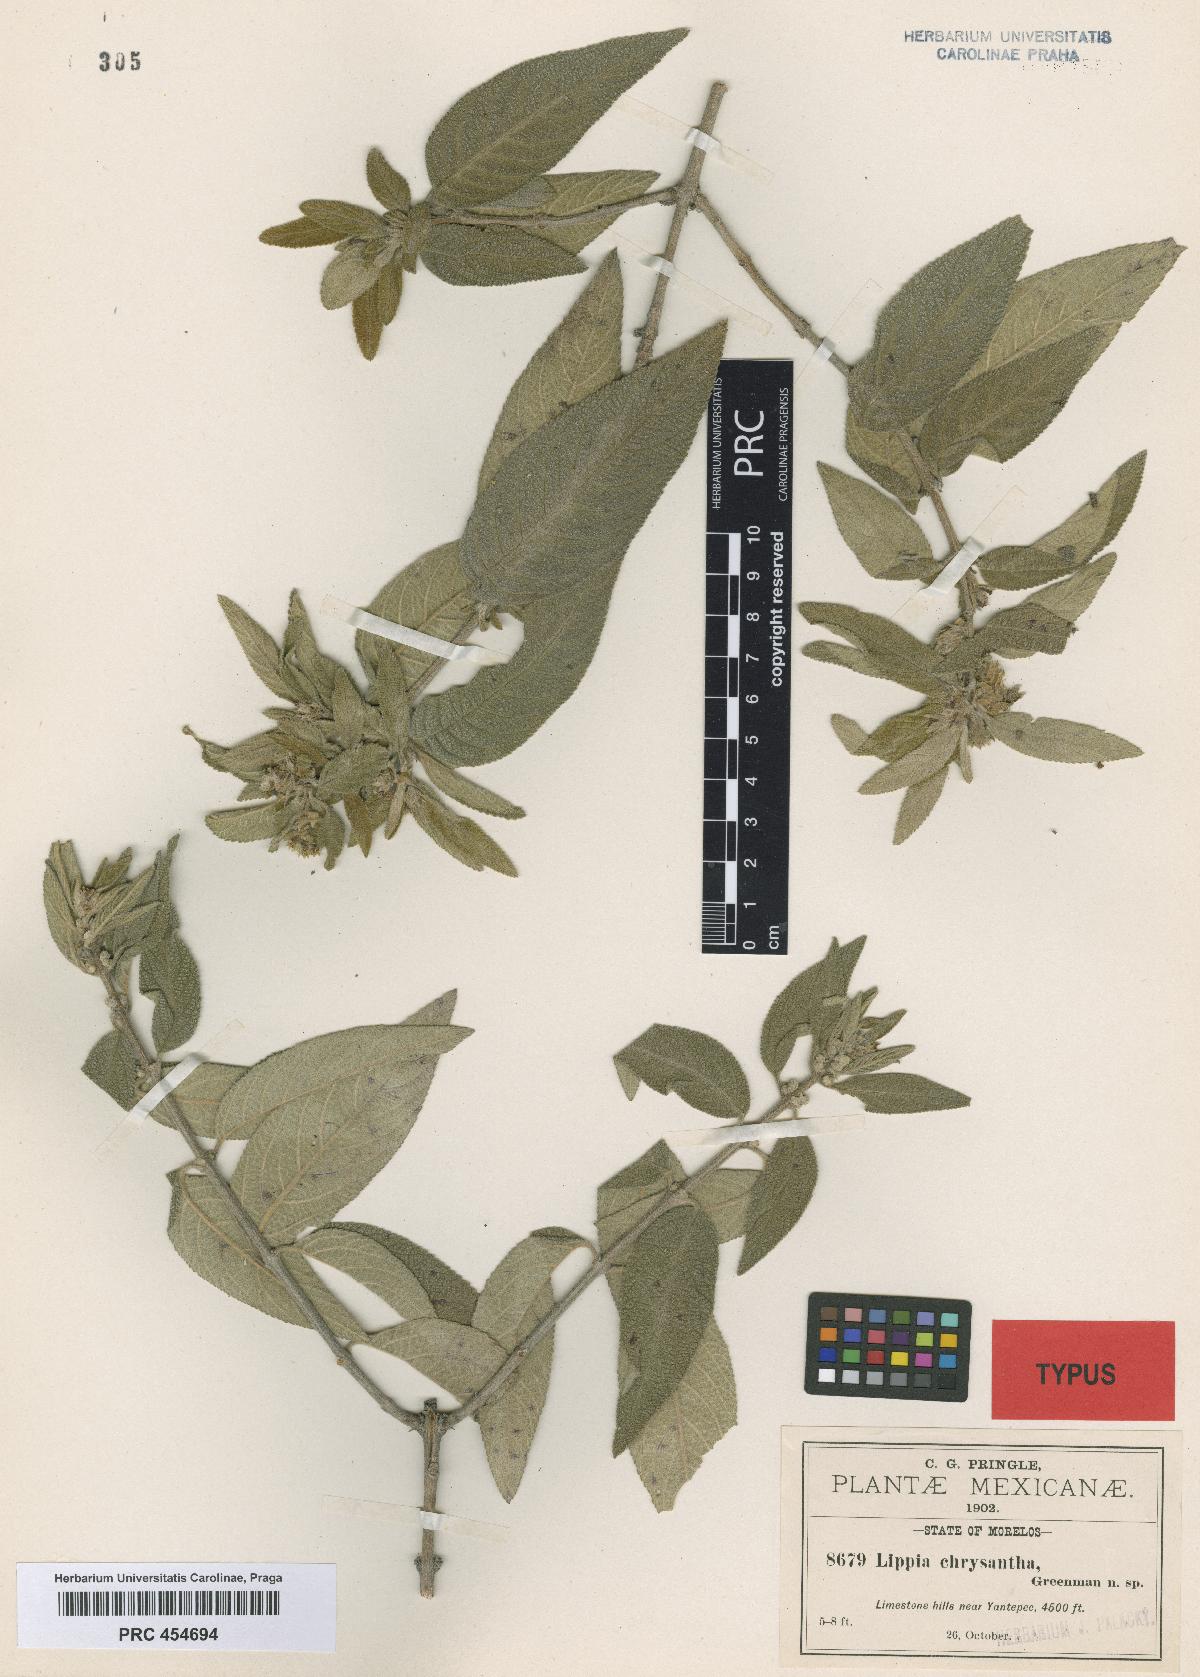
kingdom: Plantae
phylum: Tracheophyta
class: Magnoliopsida
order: Lamiales
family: Verbenaceae
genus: Lippia
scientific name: Lippia chrysantha
